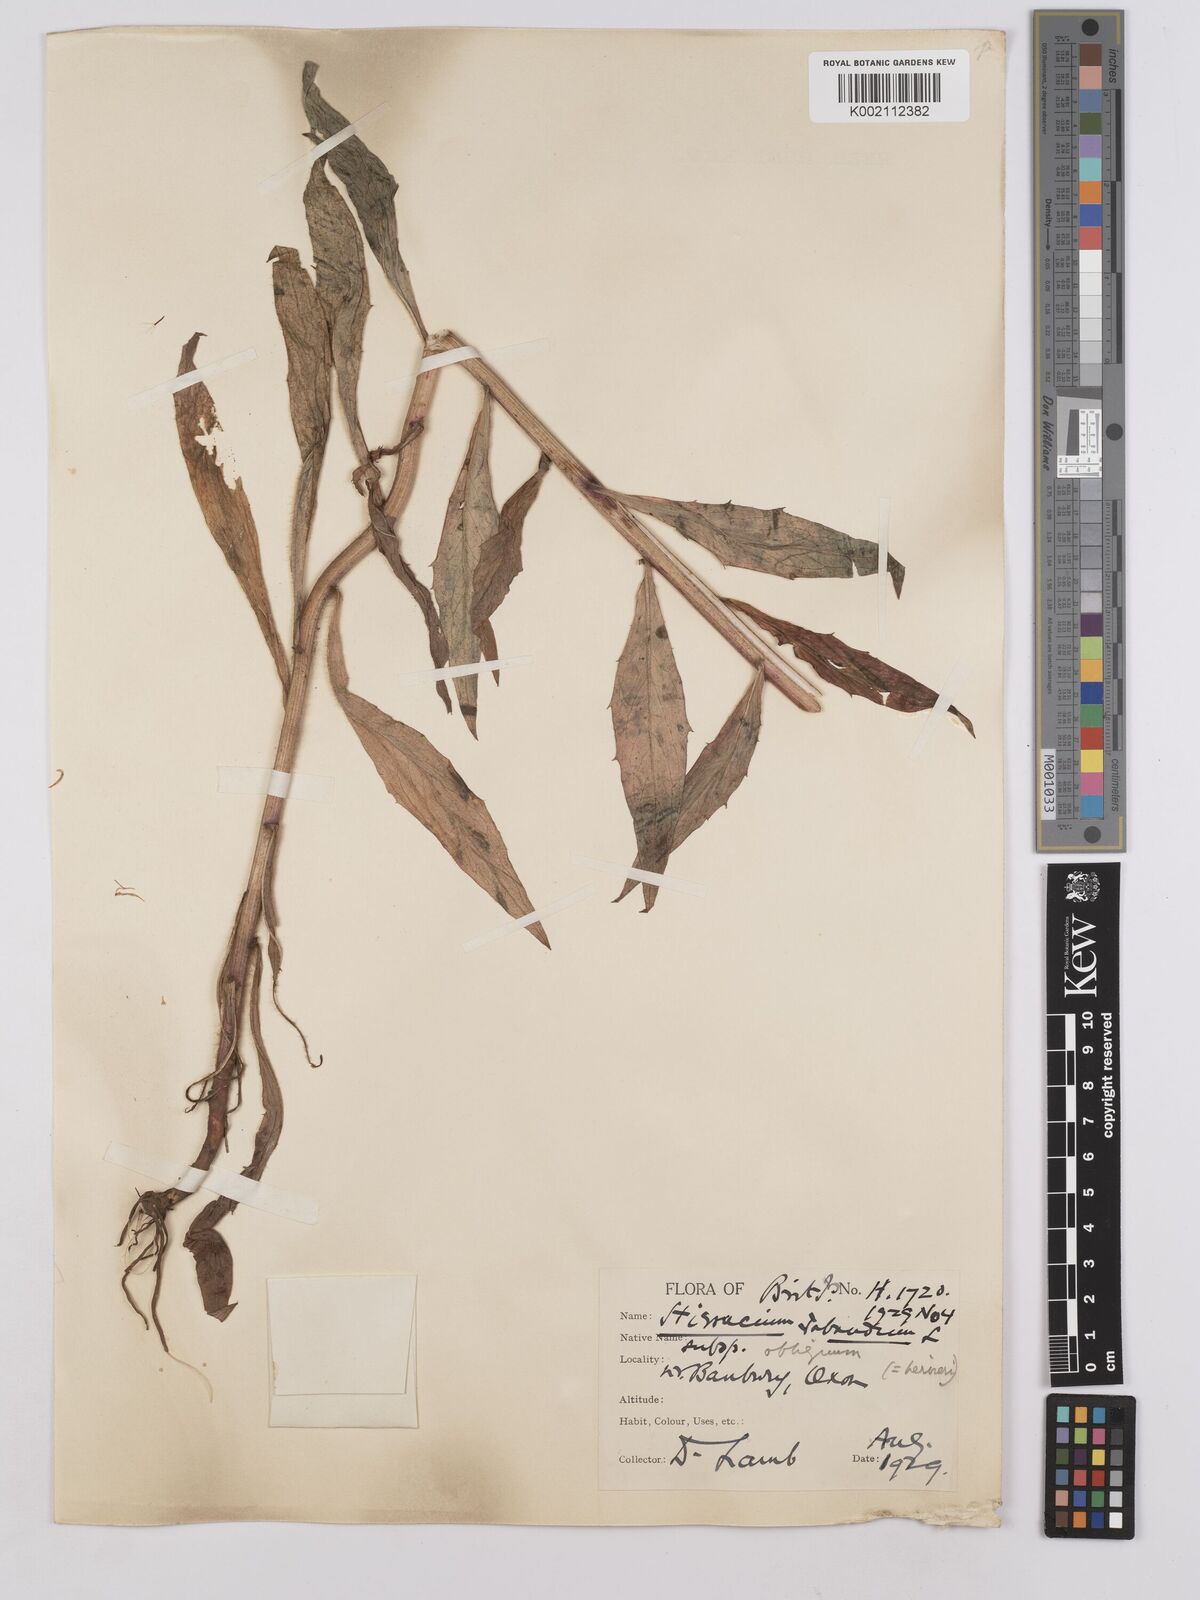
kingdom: Plantae
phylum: Tracheophyta
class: Magnoliopsida
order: Asterales
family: Asteraceae
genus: Hieracium
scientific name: Hieracium sabaudum
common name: New england hawkweed
